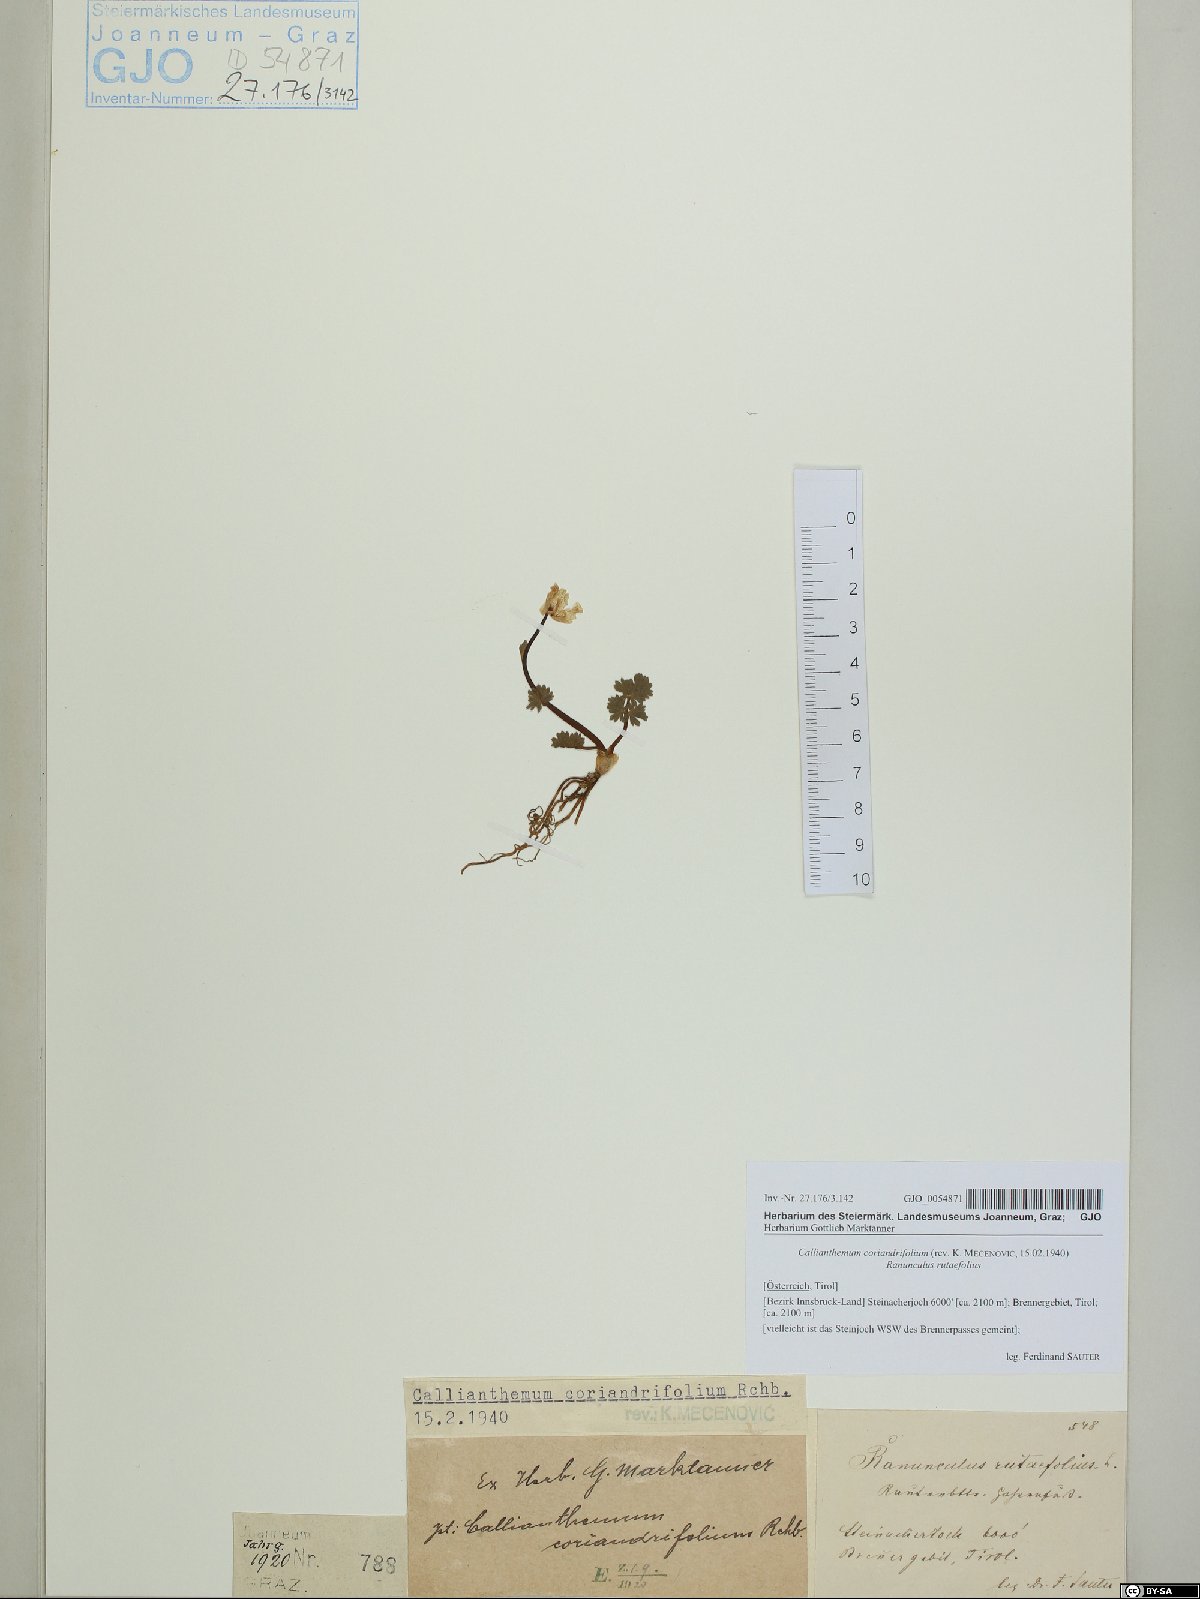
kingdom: Plantae
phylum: Tracheophyta
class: Magnoliopsida
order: Ranunculales
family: Ranunculaceae
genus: Callianthemum
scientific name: Callianthemum coriandrifolium
